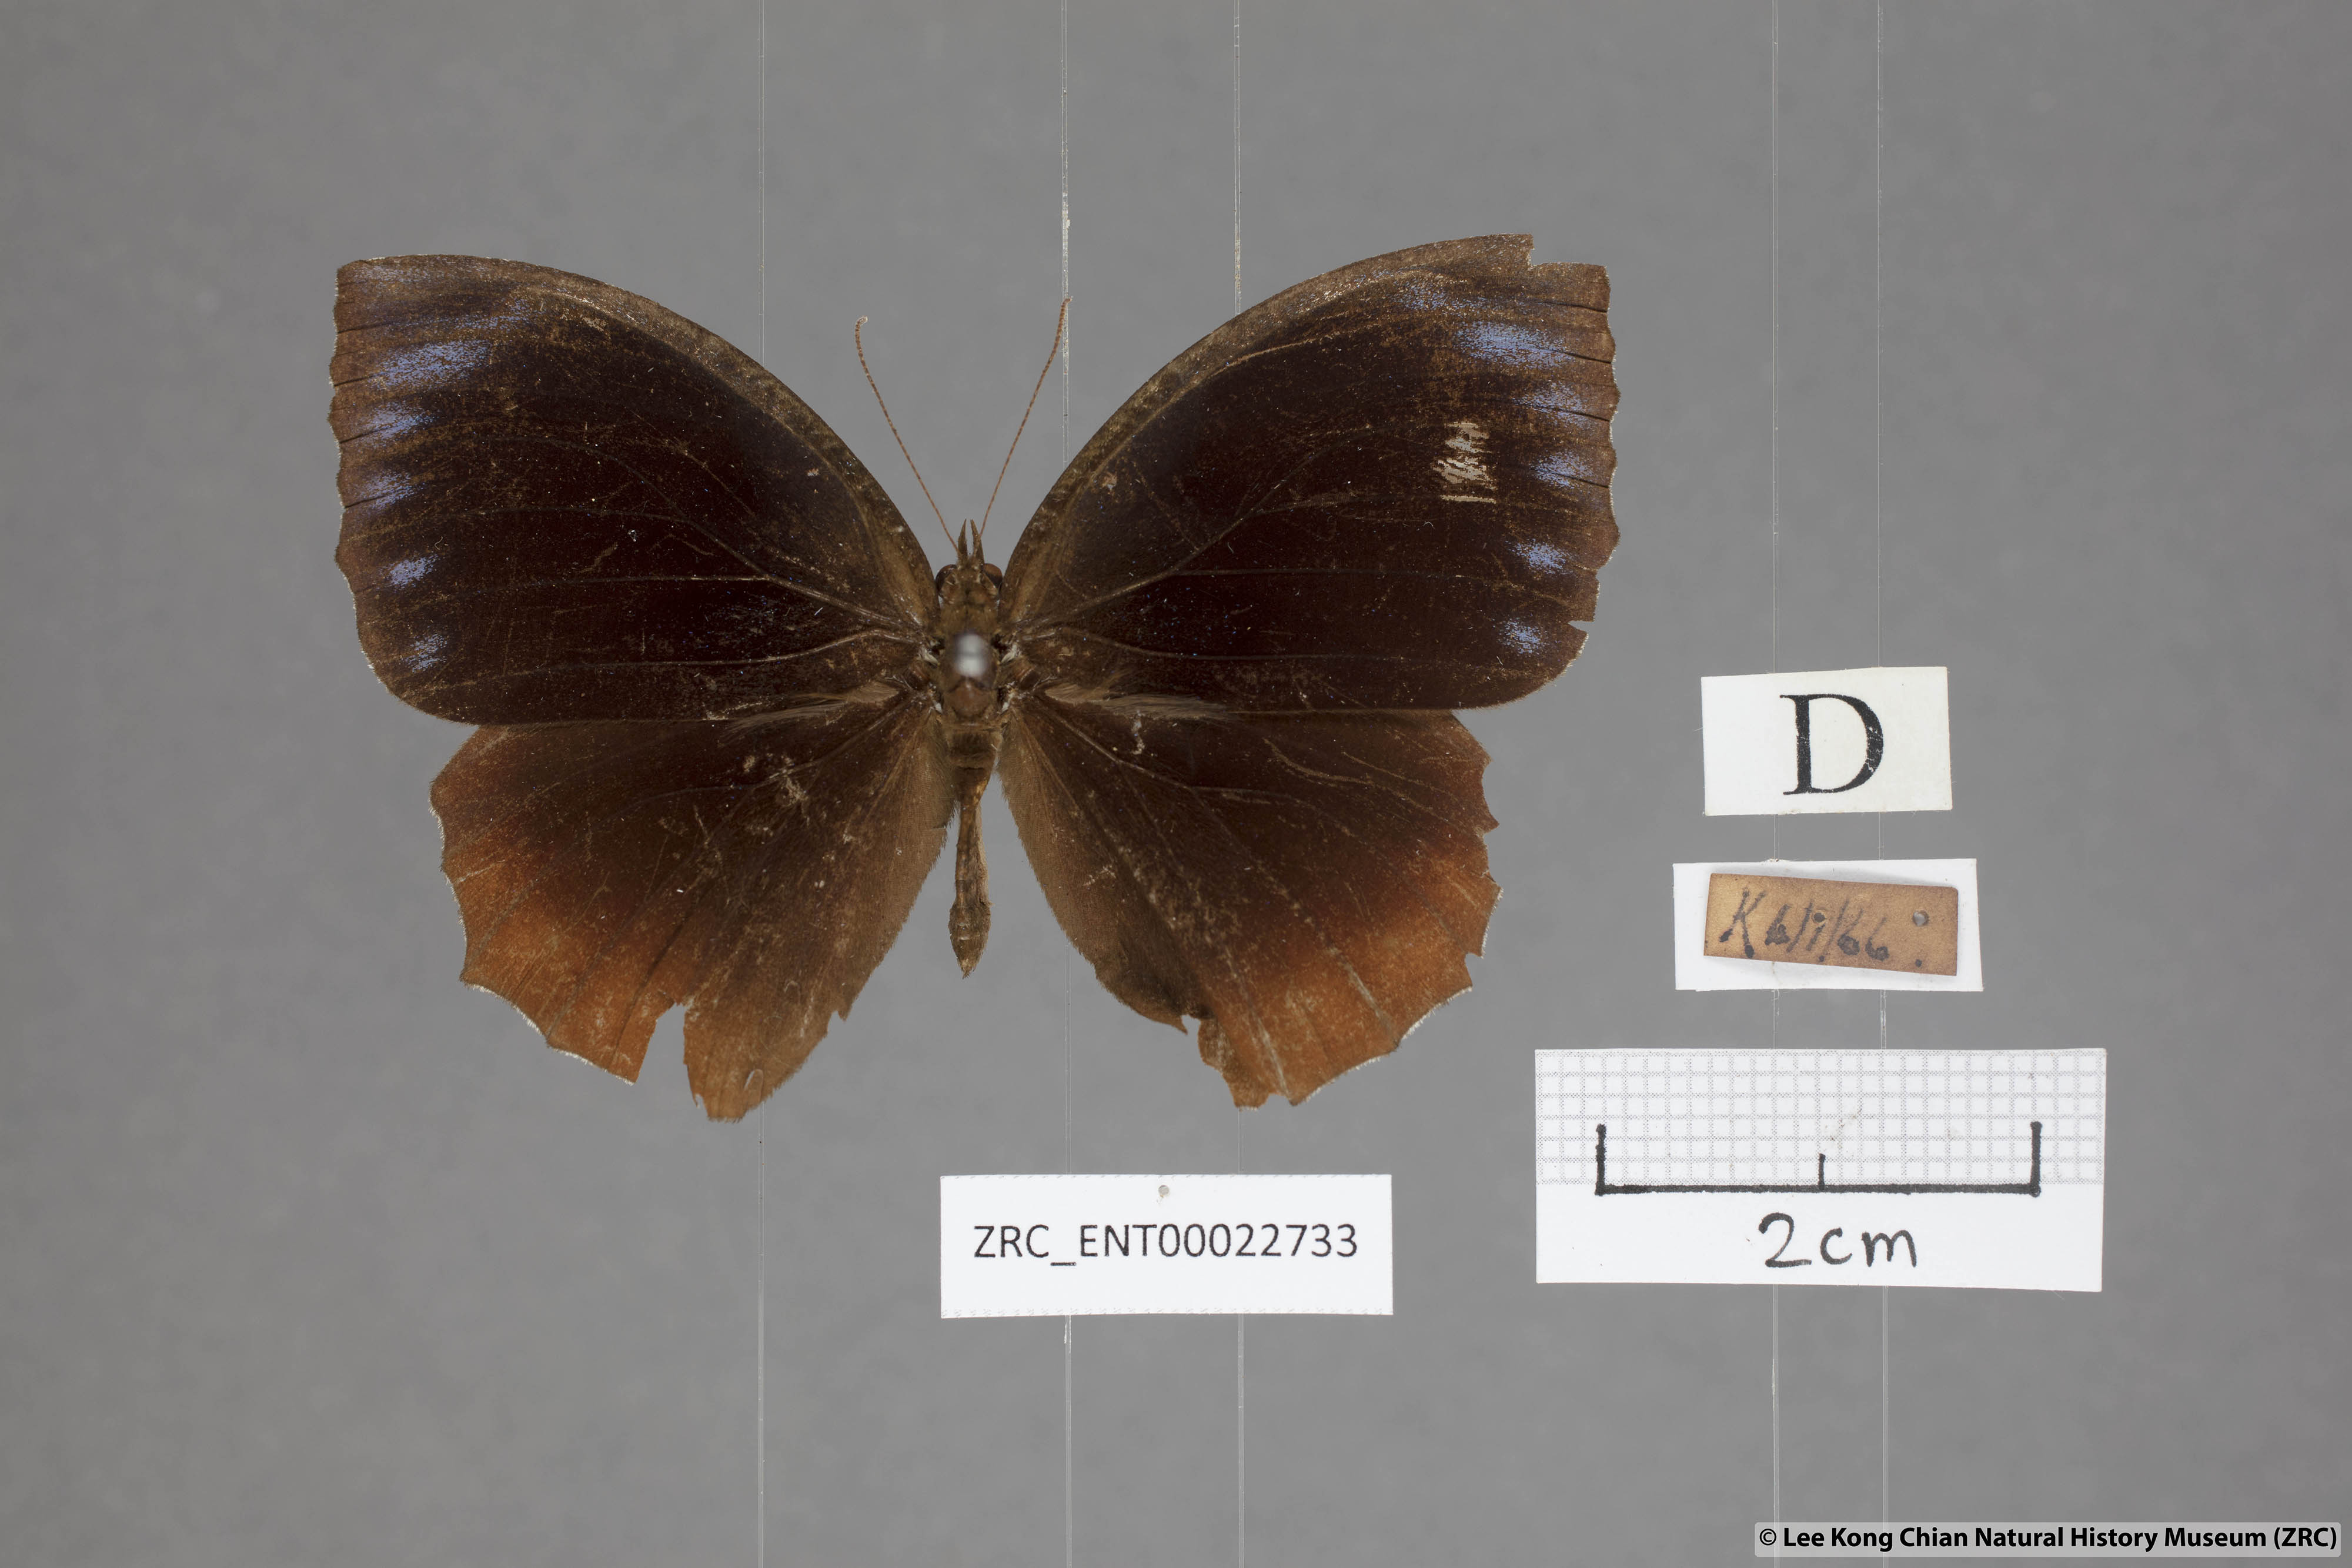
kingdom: Animalia
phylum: Arthropoda
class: Insecta
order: Lepidoptera
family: Nymphalidae
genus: Elymnias
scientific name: Elymnias hypermnestra
